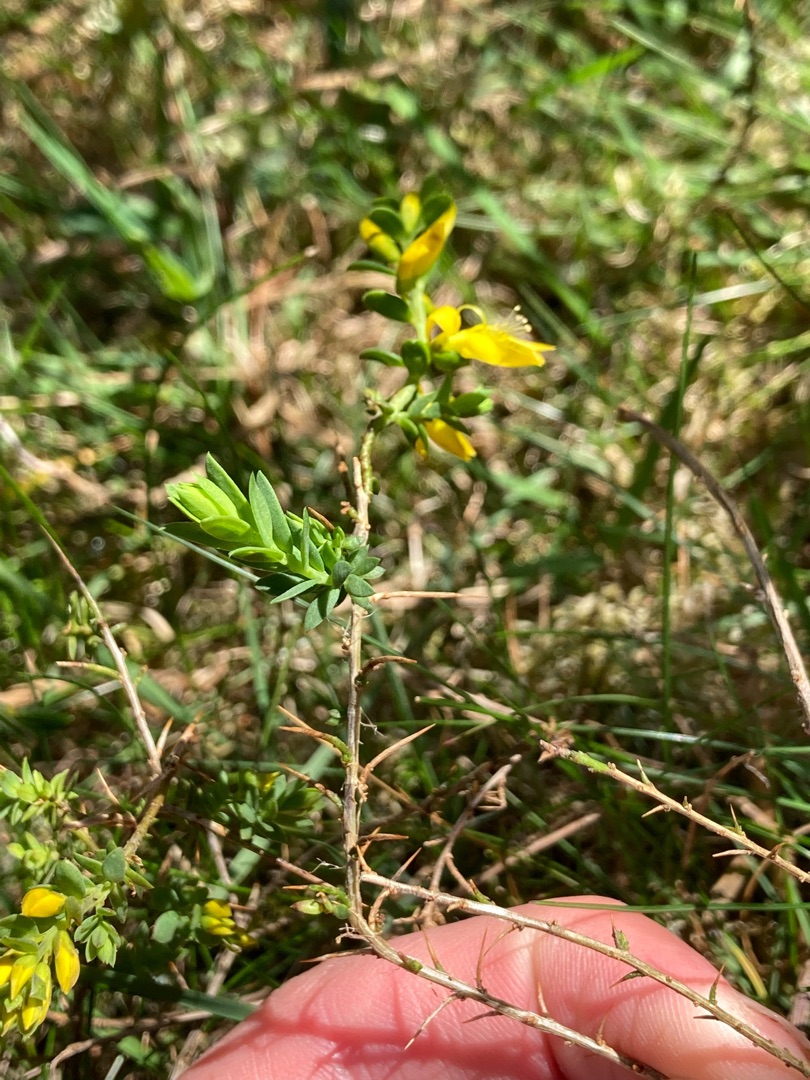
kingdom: Plantae
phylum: Tracheophyta
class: Magnoliopsida
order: Fabales
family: Fabaceae
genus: Genista
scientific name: Genista anglica
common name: Engelsk visse
